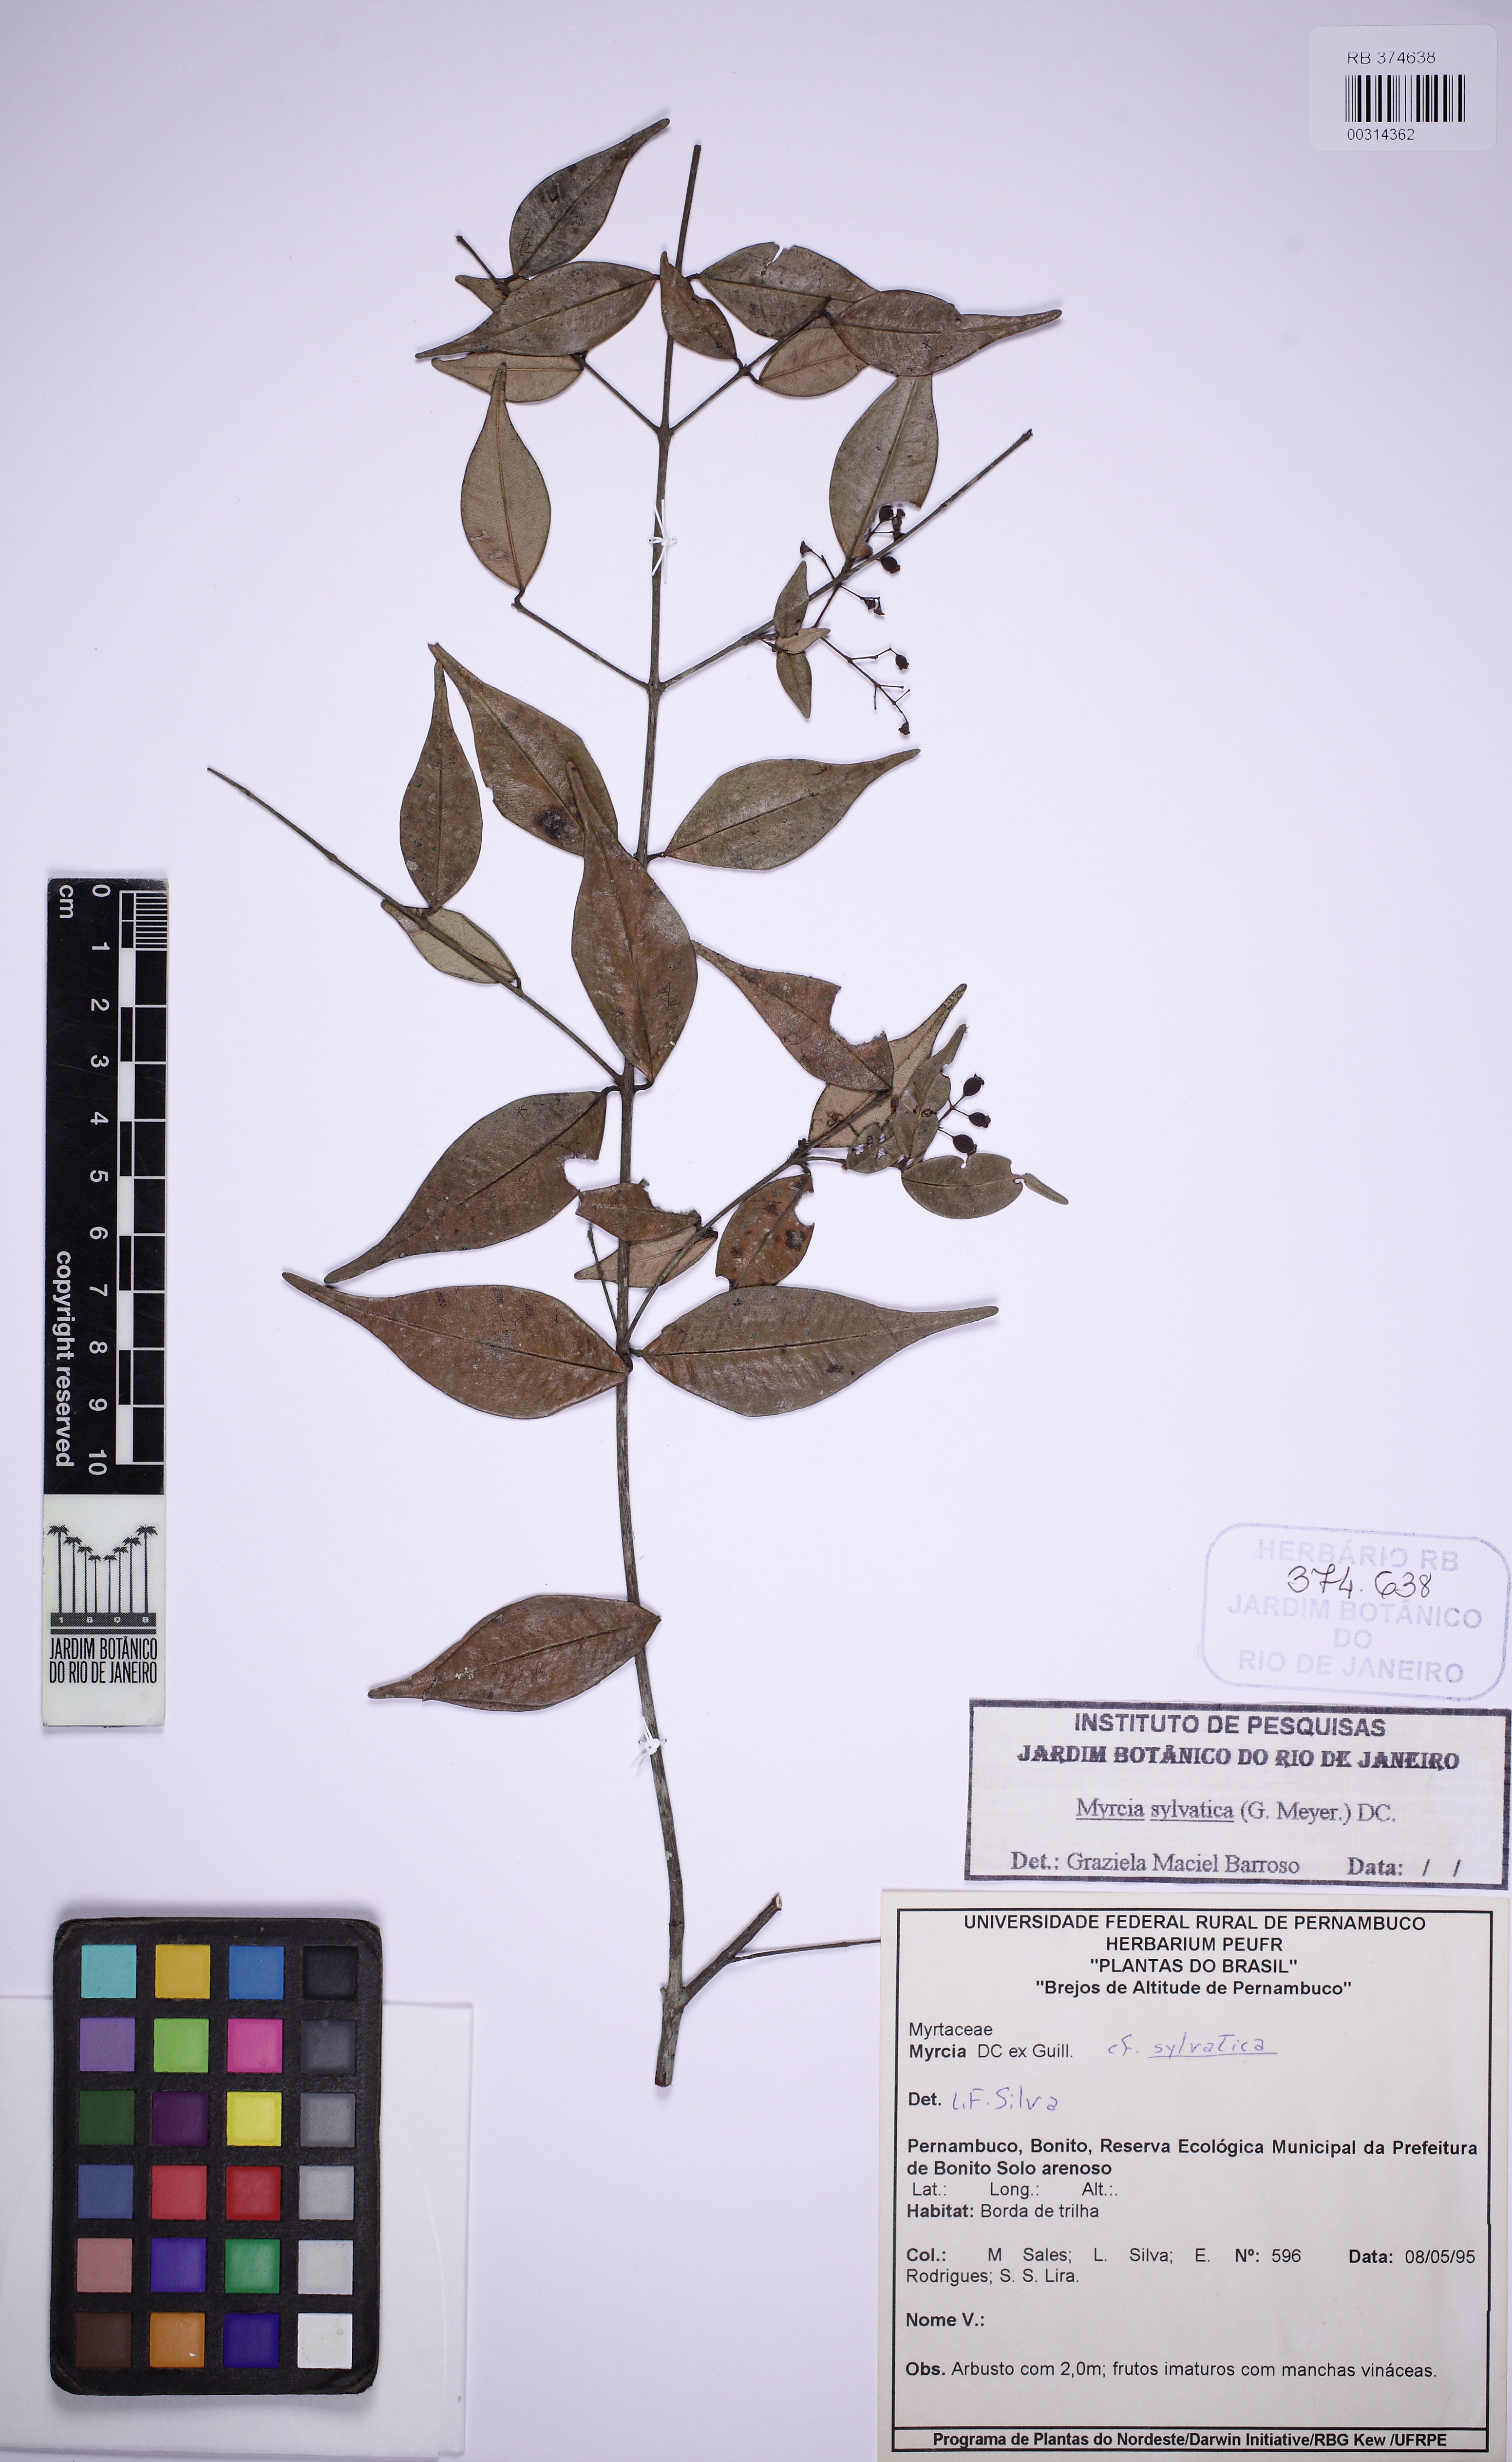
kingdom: Plantae
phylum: Tracheophyta
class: Magnoliopsida
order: Myrtales
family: Myrtaceae
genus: Myrcia
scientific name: Myrcia sylvatica
